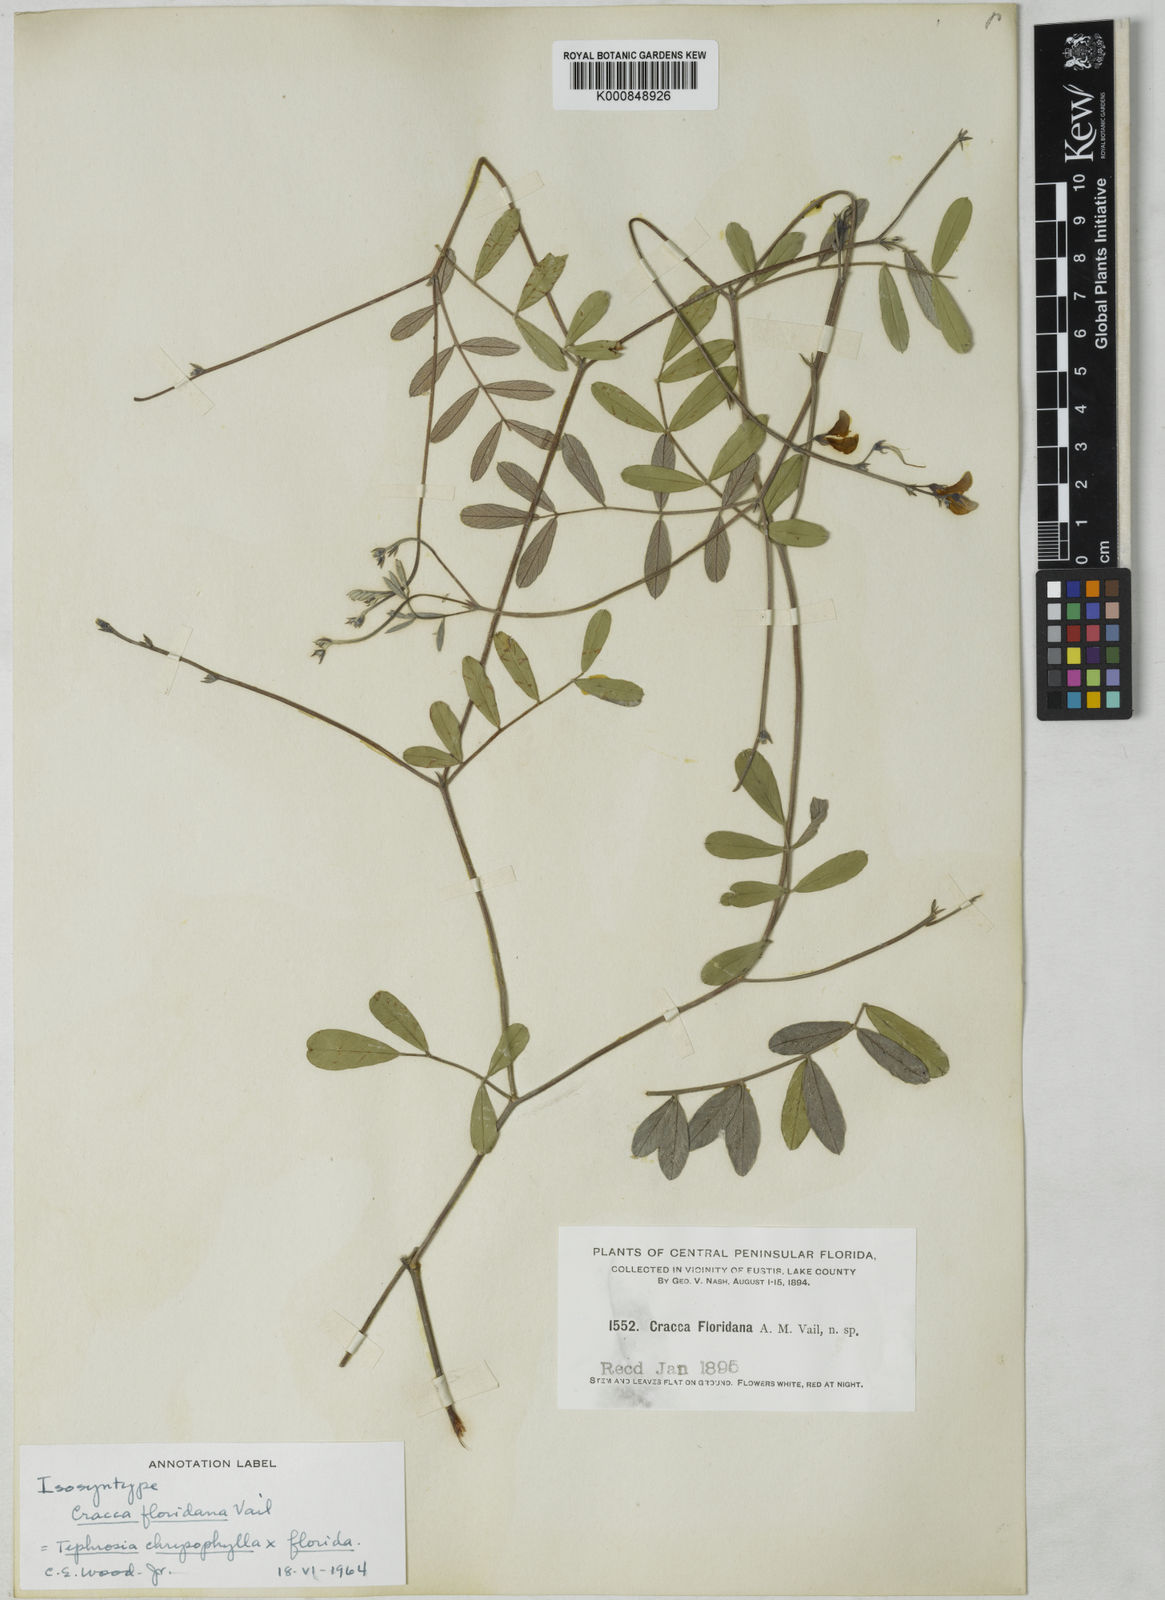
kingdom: Plantae
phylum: Tracheophyta
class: Magnoliopsida
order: Fabales
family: Fabaceae
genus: Tephrosia
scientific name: Tephrosia
